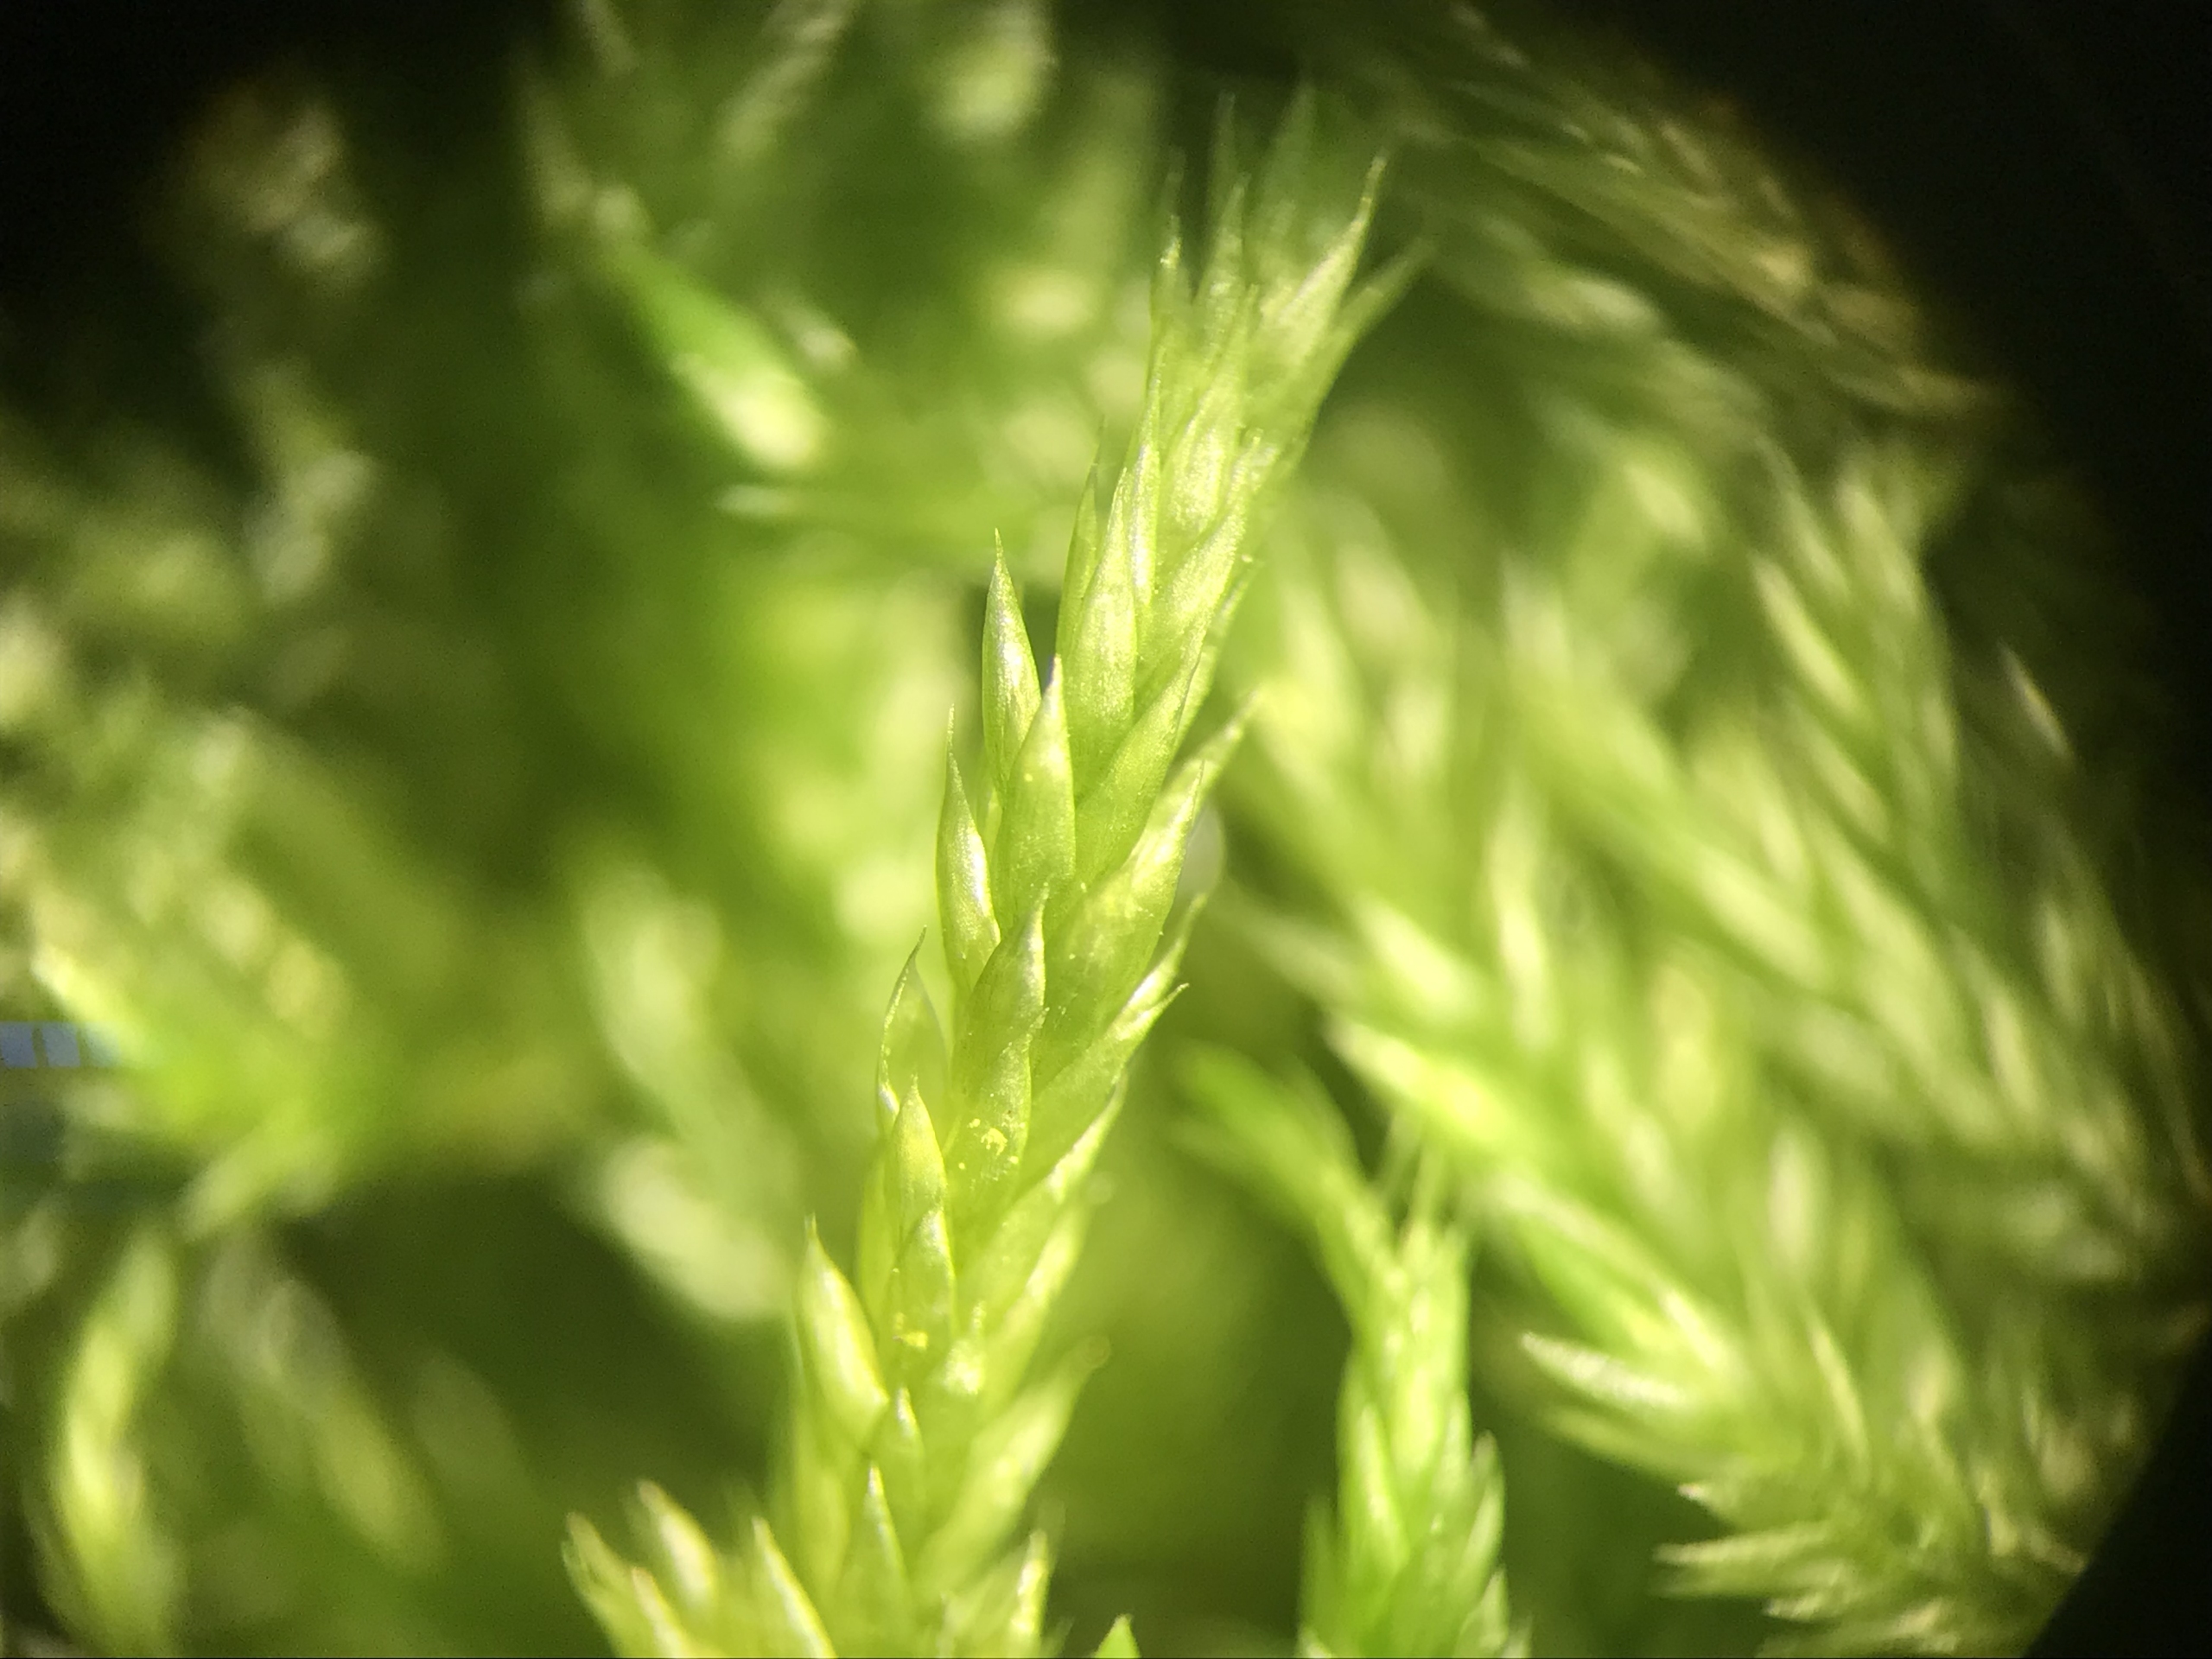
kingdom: Plantae
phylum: Bryophyta
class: Bryopsida
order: Hypnales
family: Lembophyllaceae
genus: Isothecium
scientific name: Isothecium alopecuroides
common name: Stor stammemos
